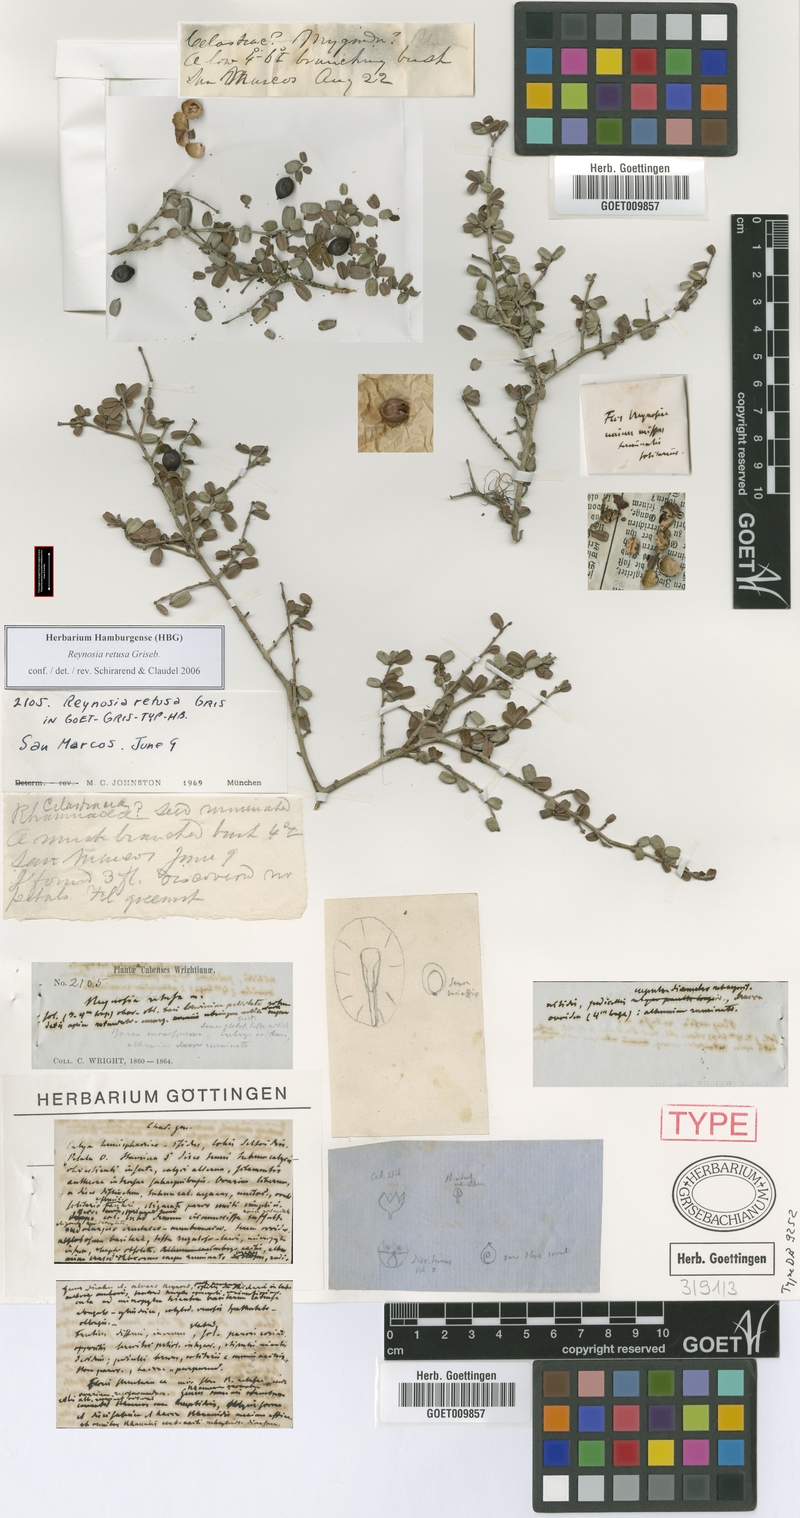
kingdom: Plantae
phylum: Tracheophyta
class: Magnoliopsida
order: Rosales
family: Rhamnaceae
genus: Reynosia
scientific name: Reynosia retusa
